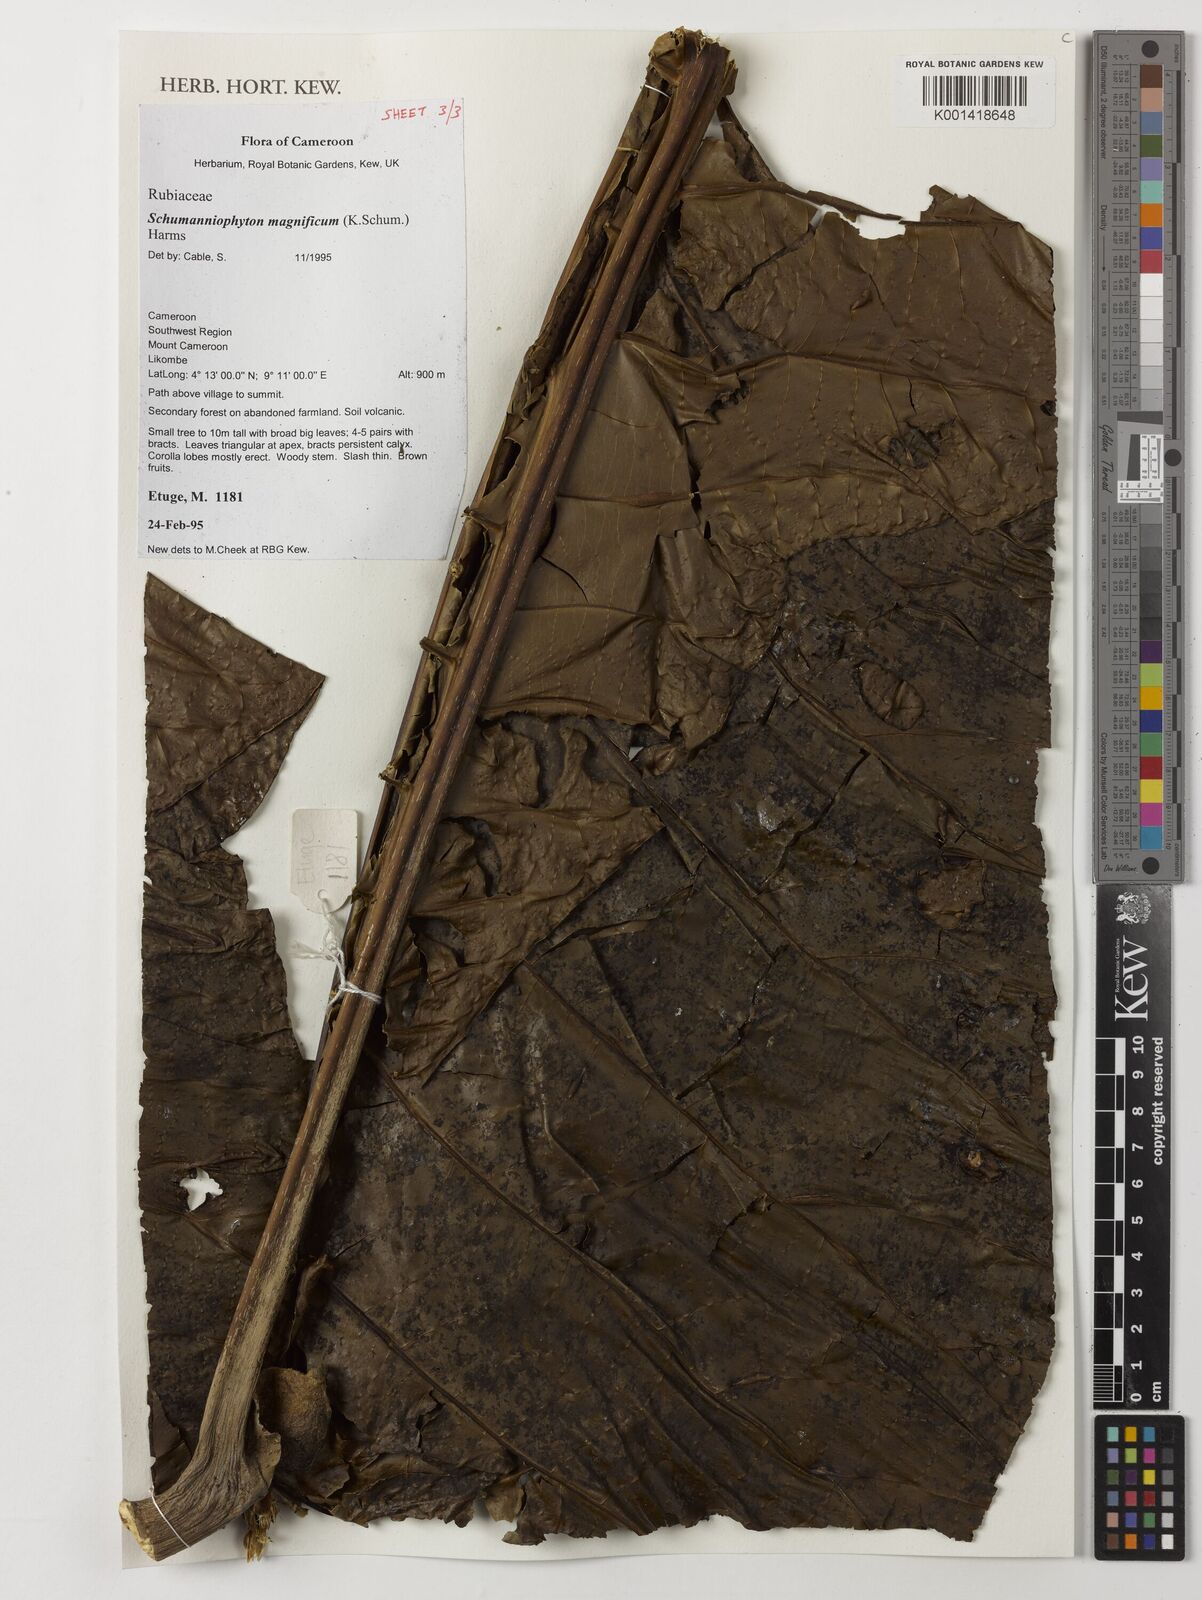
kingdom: Plantae
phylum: Tracheophyta
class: Magnoliopsida
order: Gentianales
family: Rubiaceae
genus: Schumanniophyton
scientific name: Schumanniophyton magnificum
